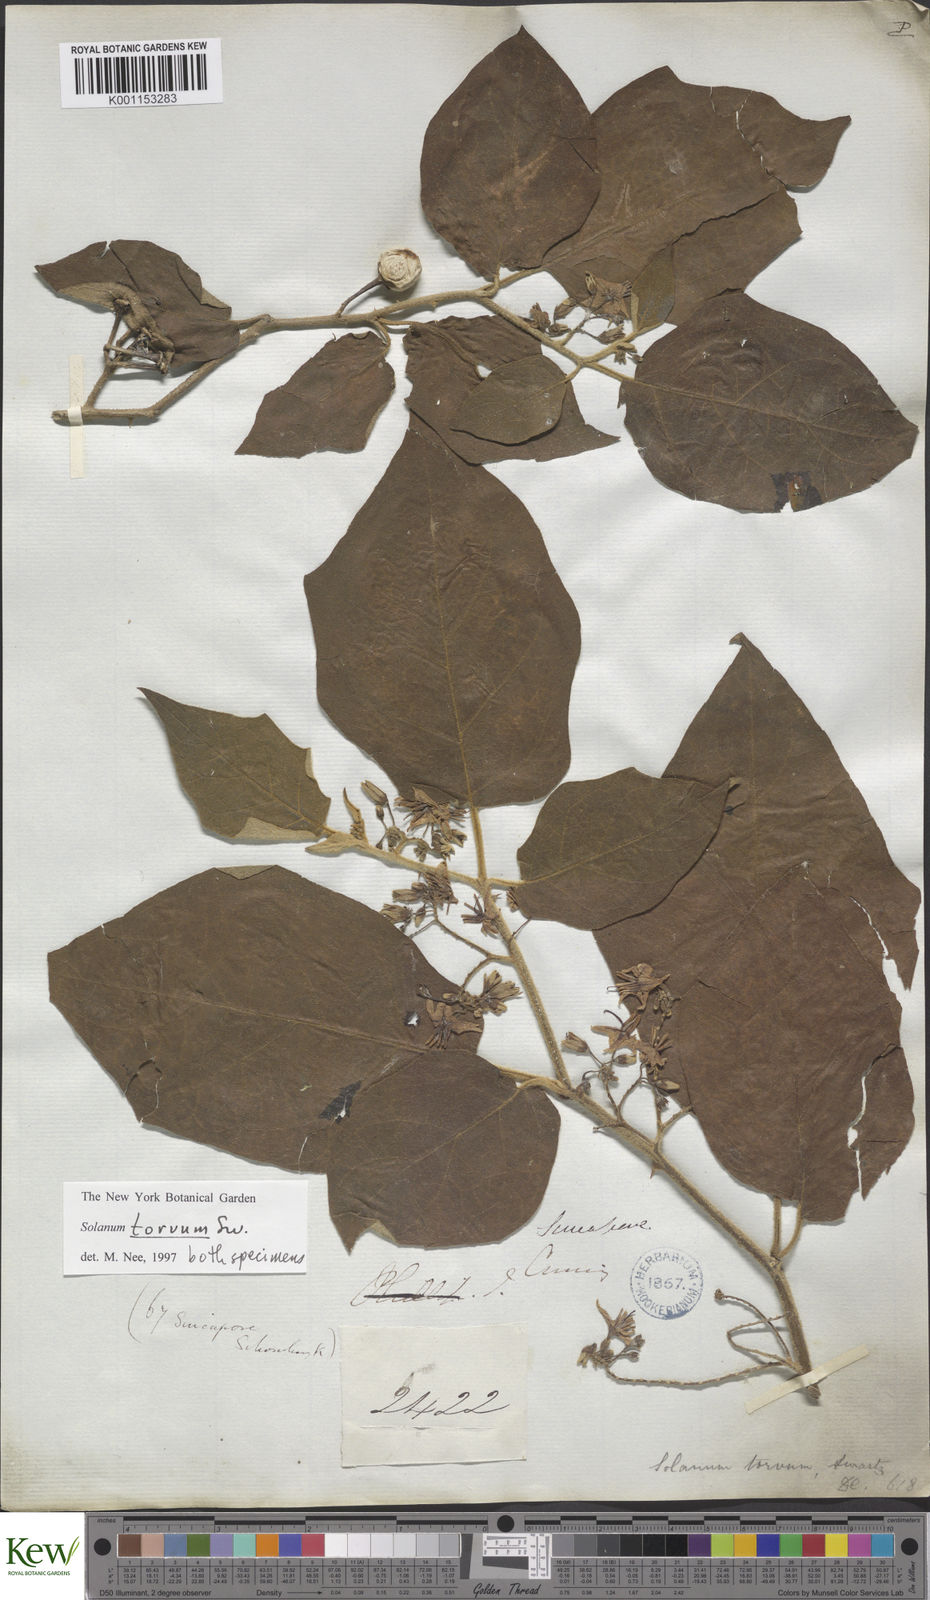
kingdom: Plantae
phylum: Tracheophyta
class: Magnoliopsida
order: Solanales
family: Solanaceae
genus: Solanum
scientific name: Solanum torvum
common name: Turkey berry
